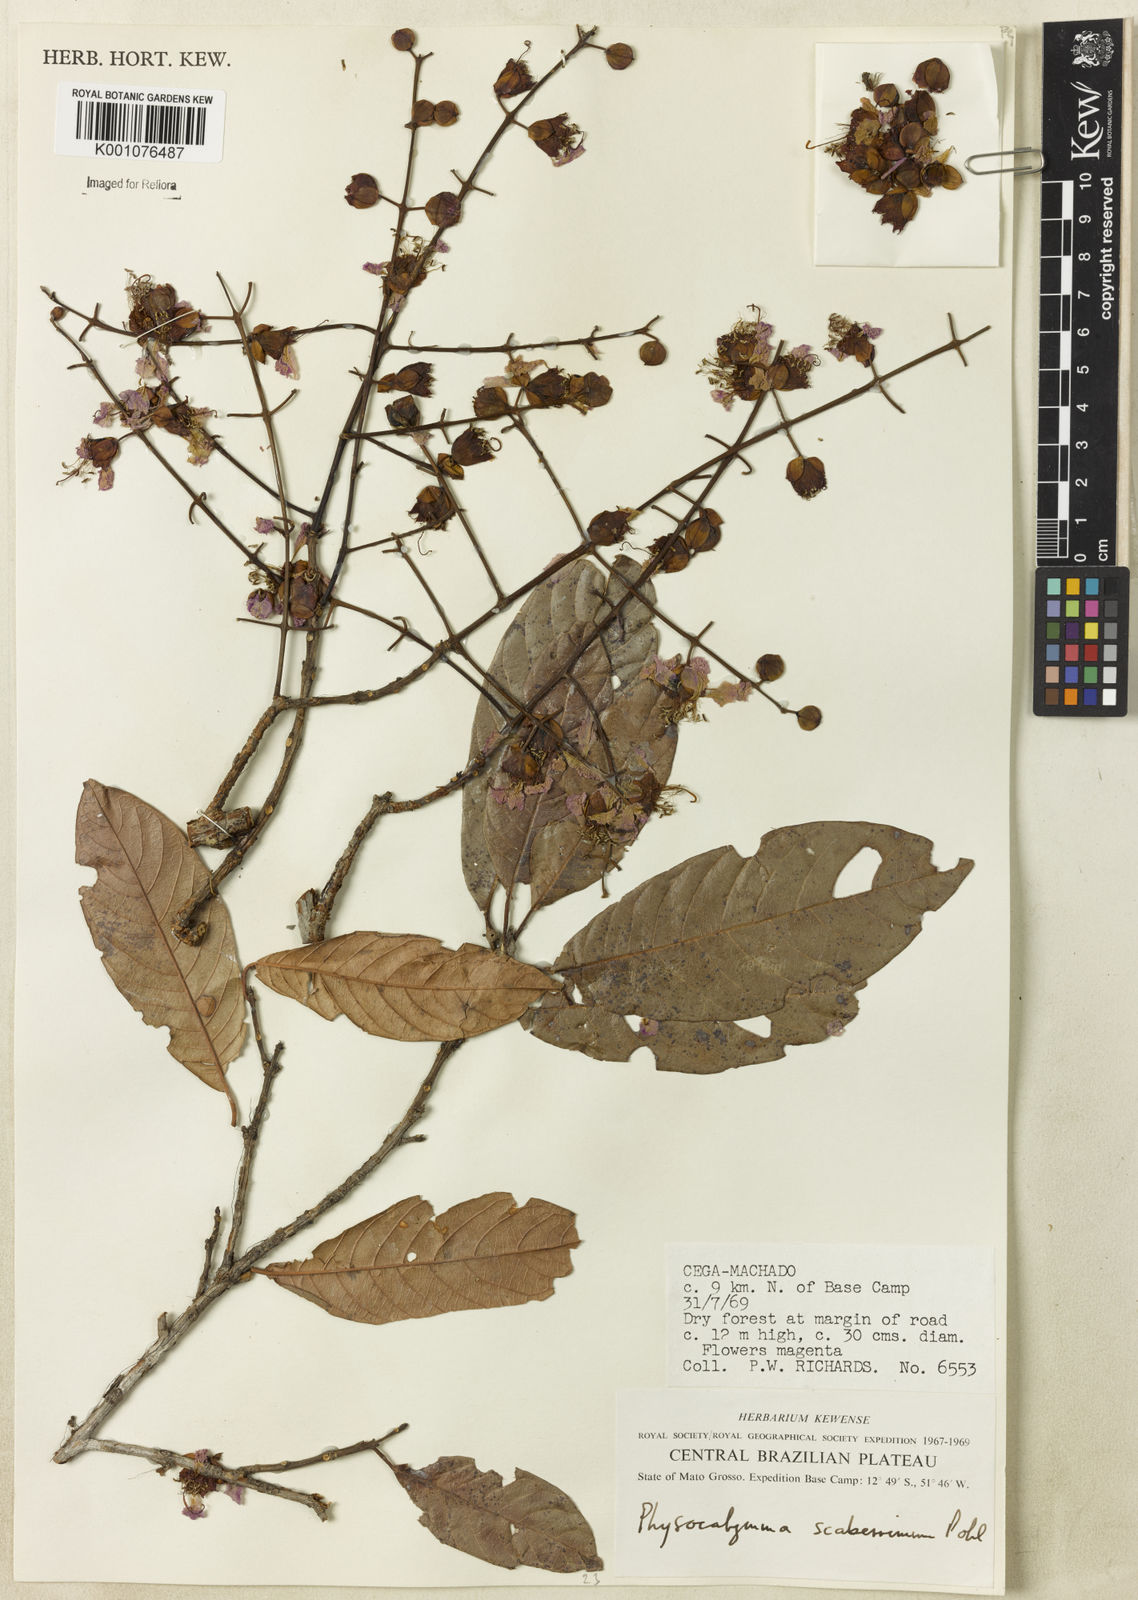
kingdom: Plantae
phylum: Tracheophyta
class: Magnoliopsida
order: Myrtales
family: Lythraceae
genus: Physocalymma
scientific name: Physocalymma scaberrimum
